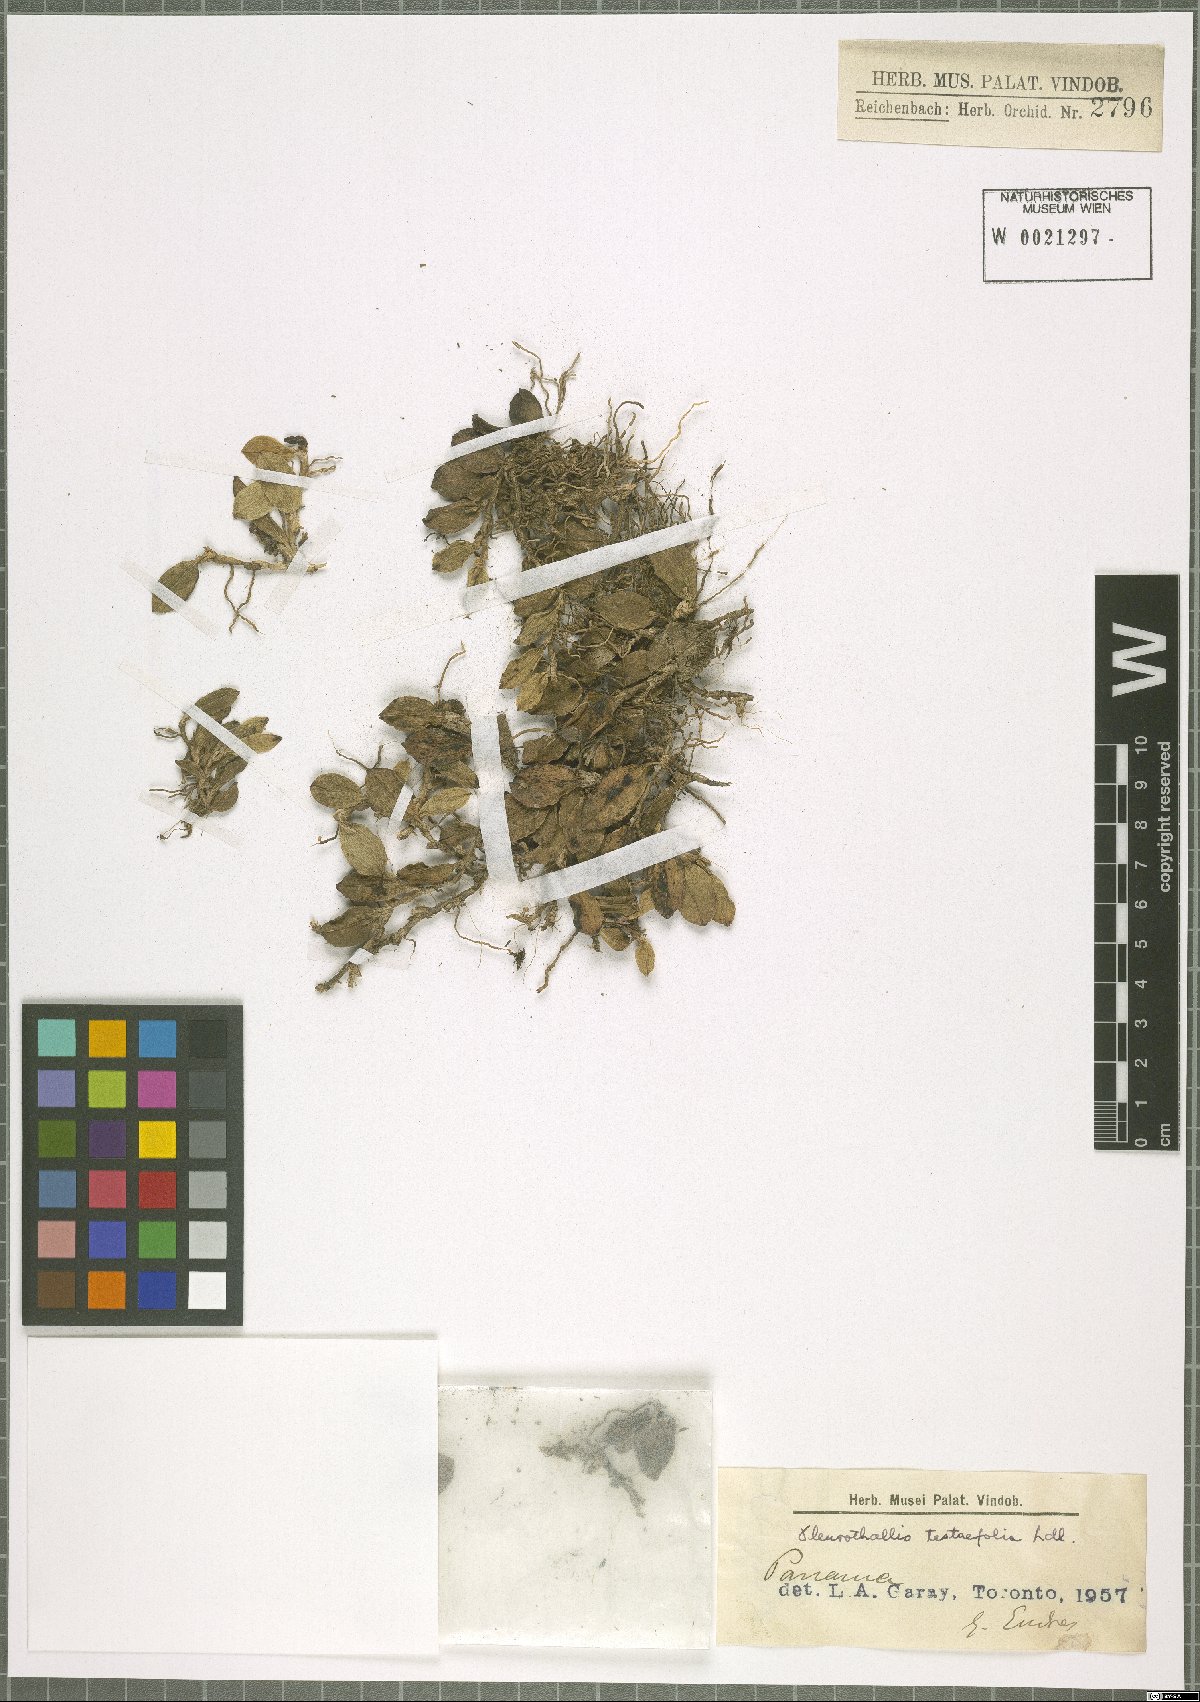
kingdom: Plantae
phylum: Tracheophyta
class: Liliopsida
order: Asparagales
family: Orchidaceae
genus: Acianthera
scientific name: Acianthera testifolia
